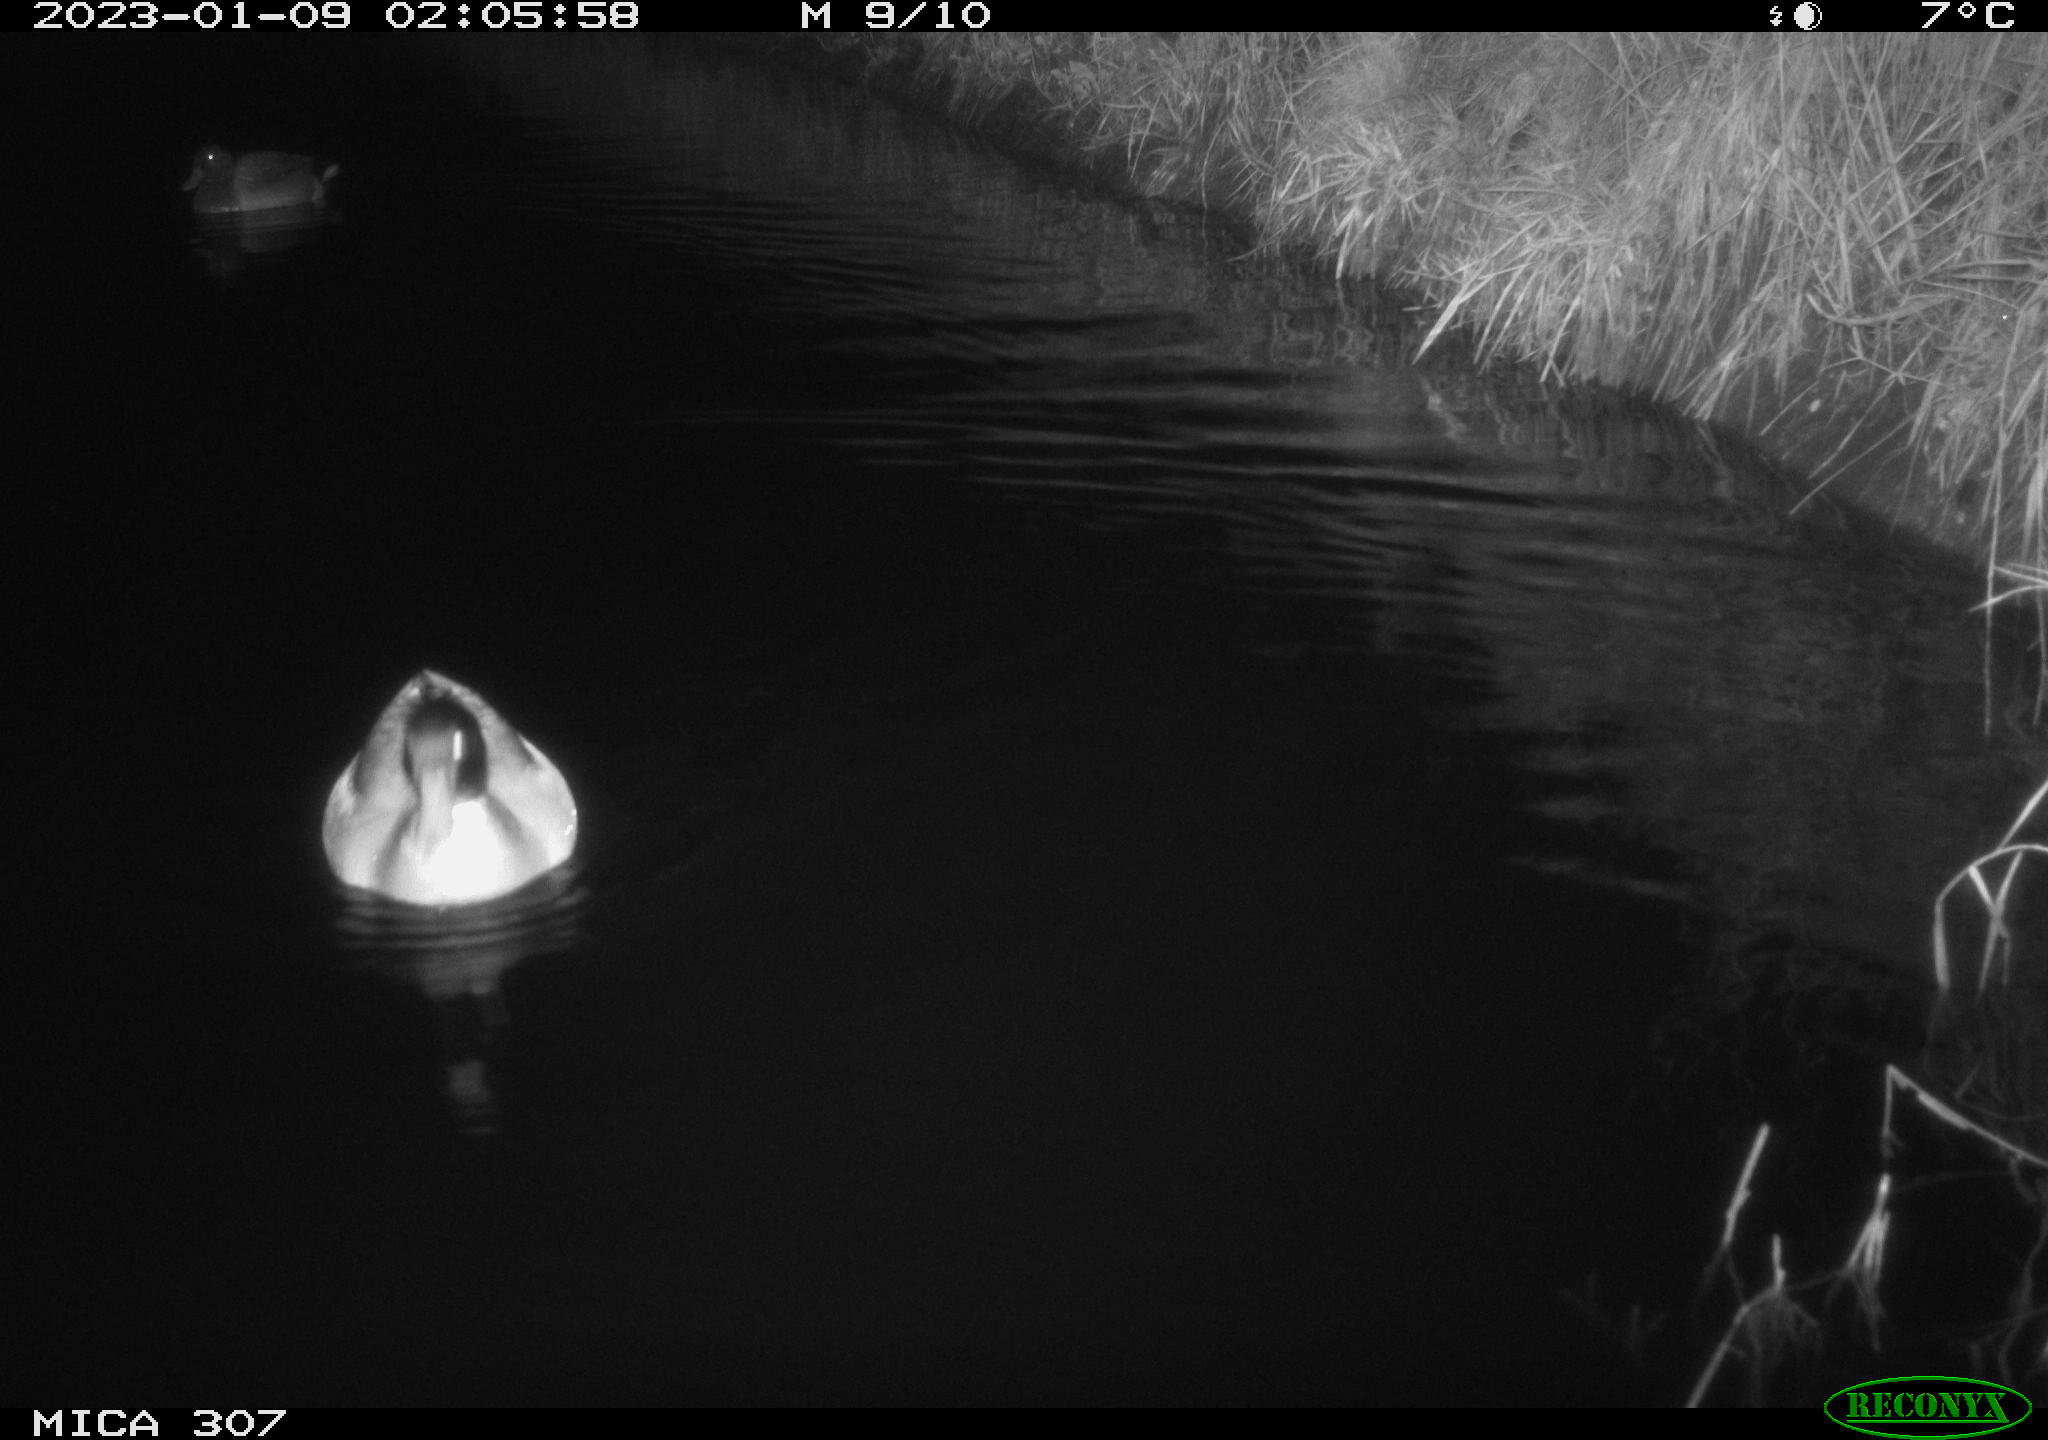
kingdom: Animalia
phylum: Chordata
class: Aves
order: Anseriformes
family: Anatidae
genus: Anas
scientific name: Anas
